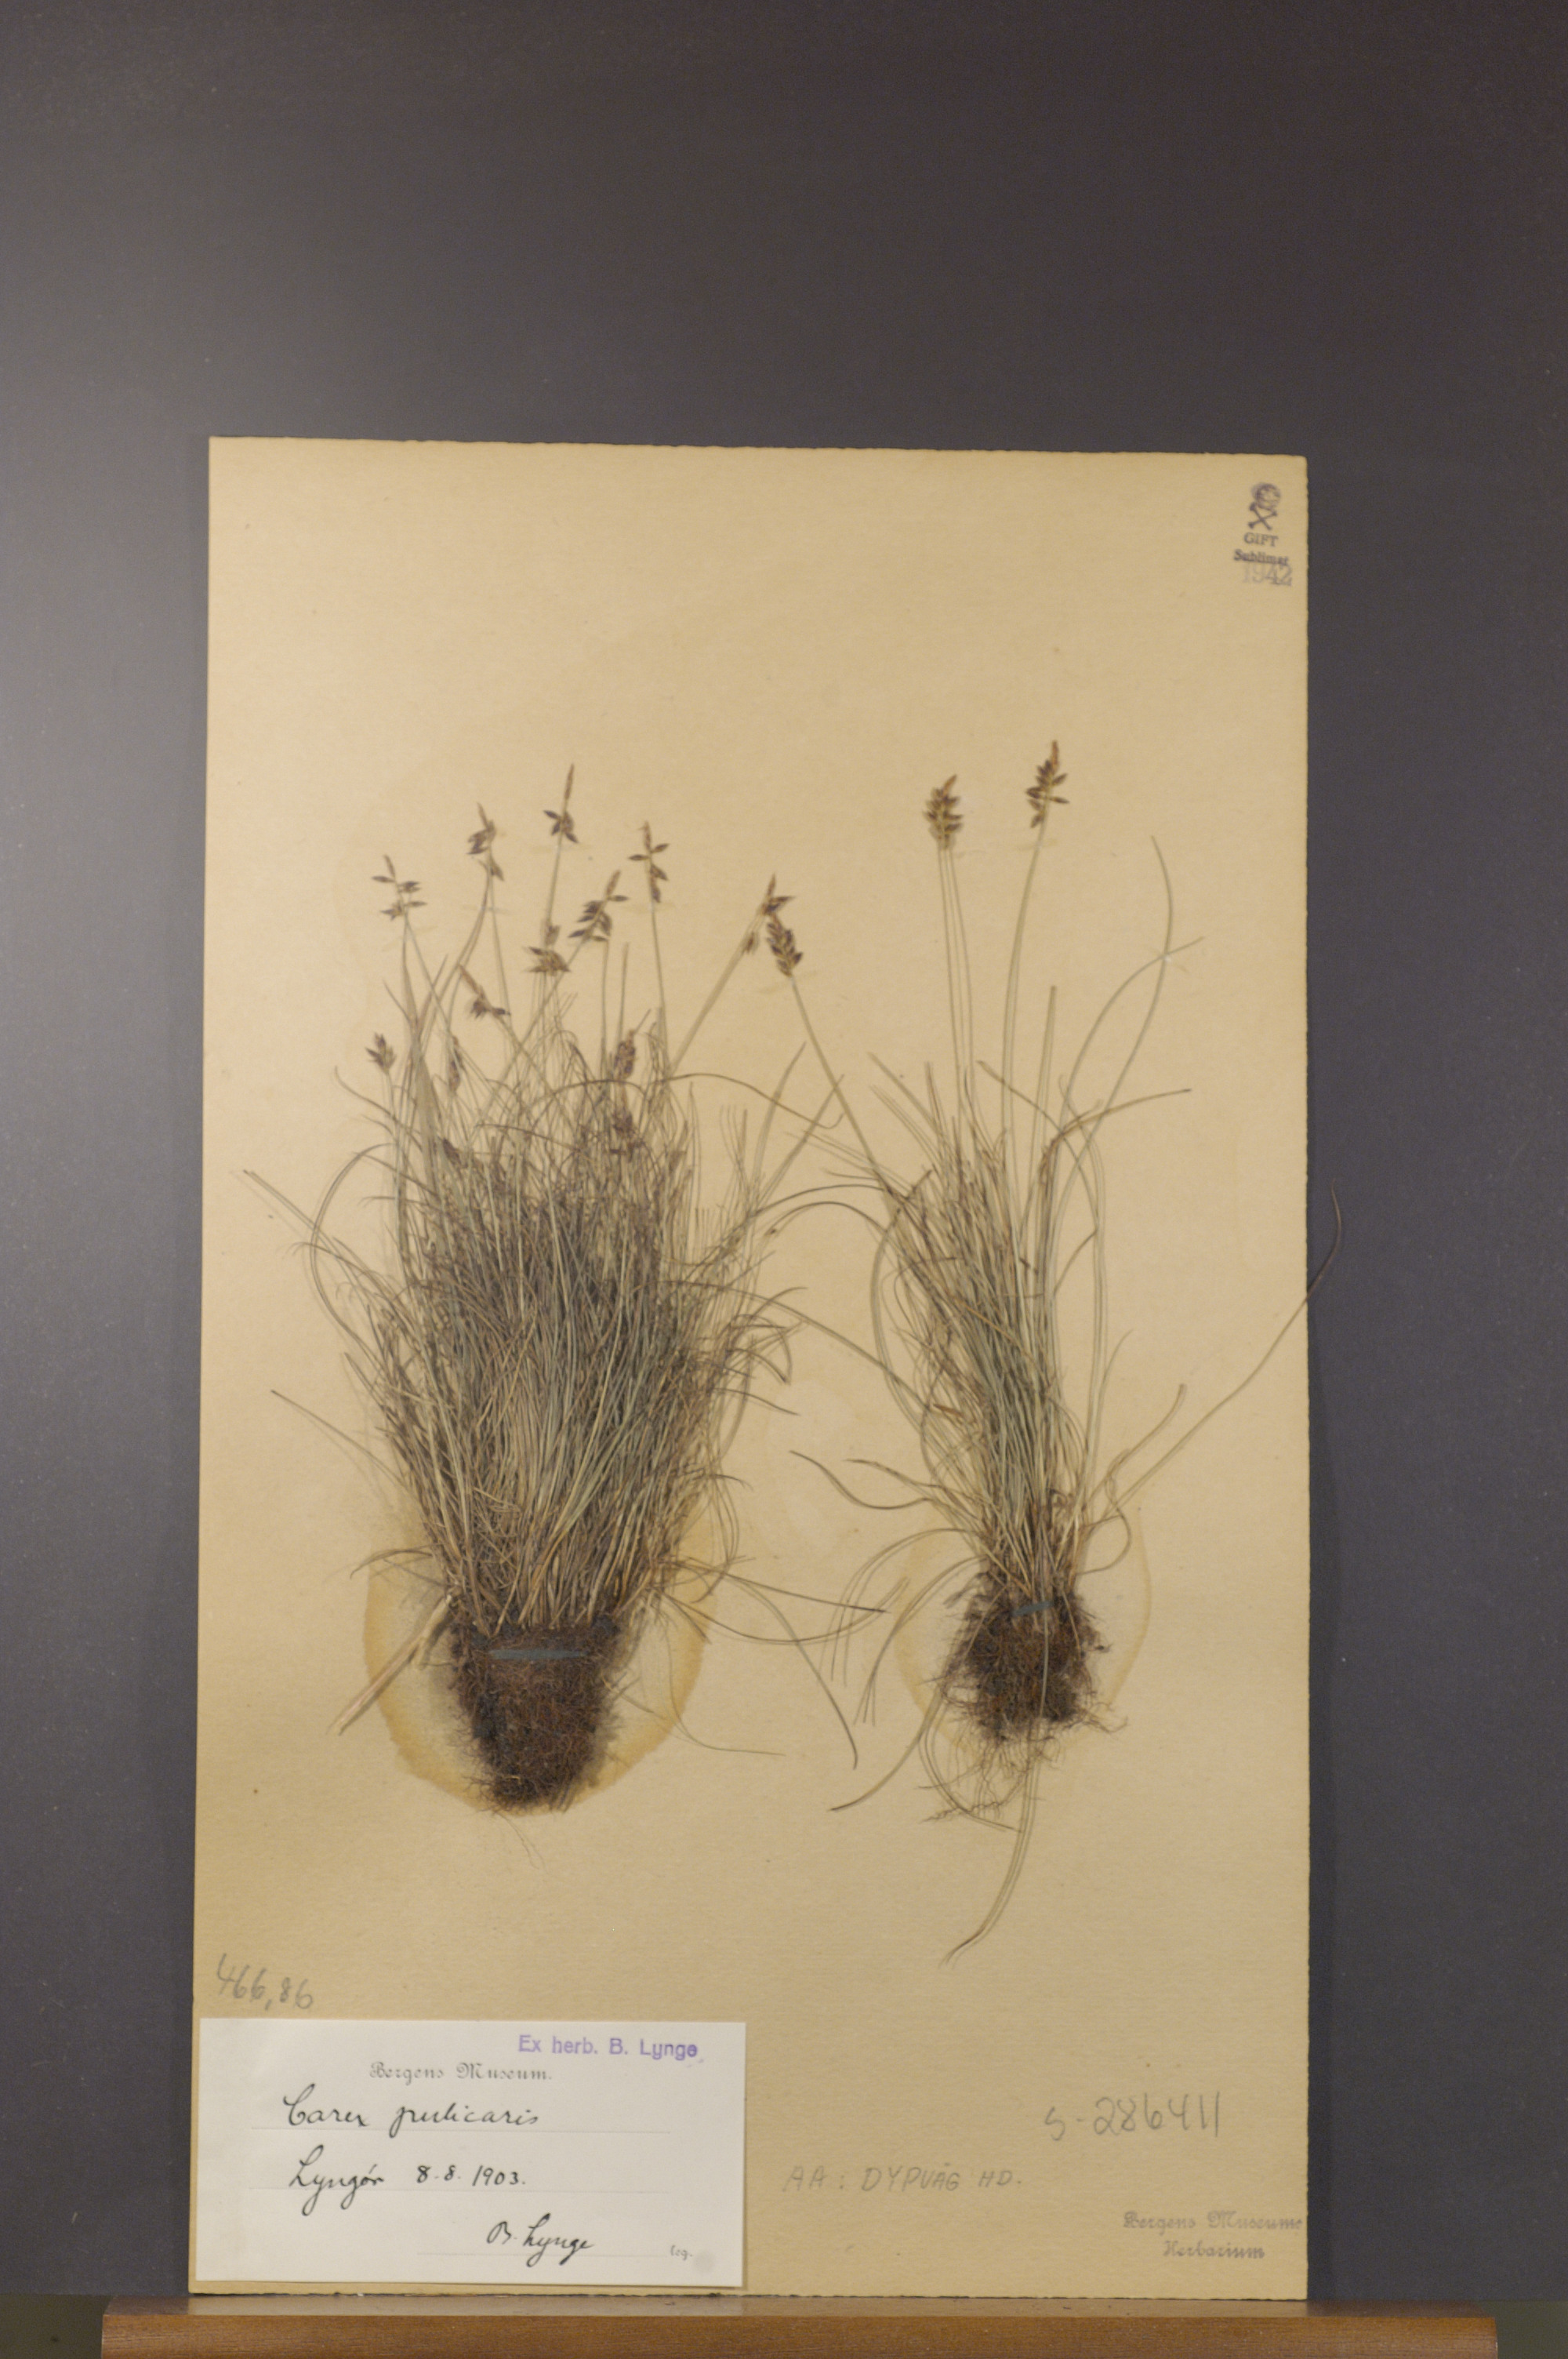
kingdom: Plantae
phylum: Tracheophyta
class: Liliopsida
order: Poales
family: Cyperaceae
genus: Carex
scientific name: Carex pulicaris
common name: Flea sedge
